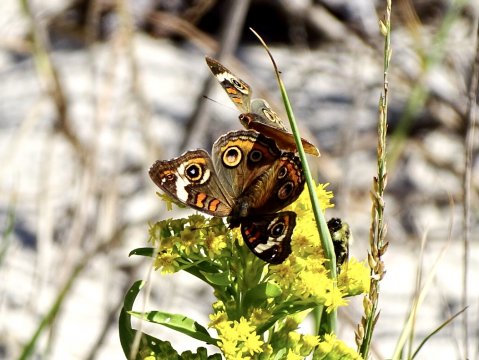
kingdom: Animalia
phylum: Arthropoda
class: Insecta
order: Lepidoptera
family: Nymphalidae
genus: Junonia
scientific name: Junonia coenia
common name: Common Buckeye
